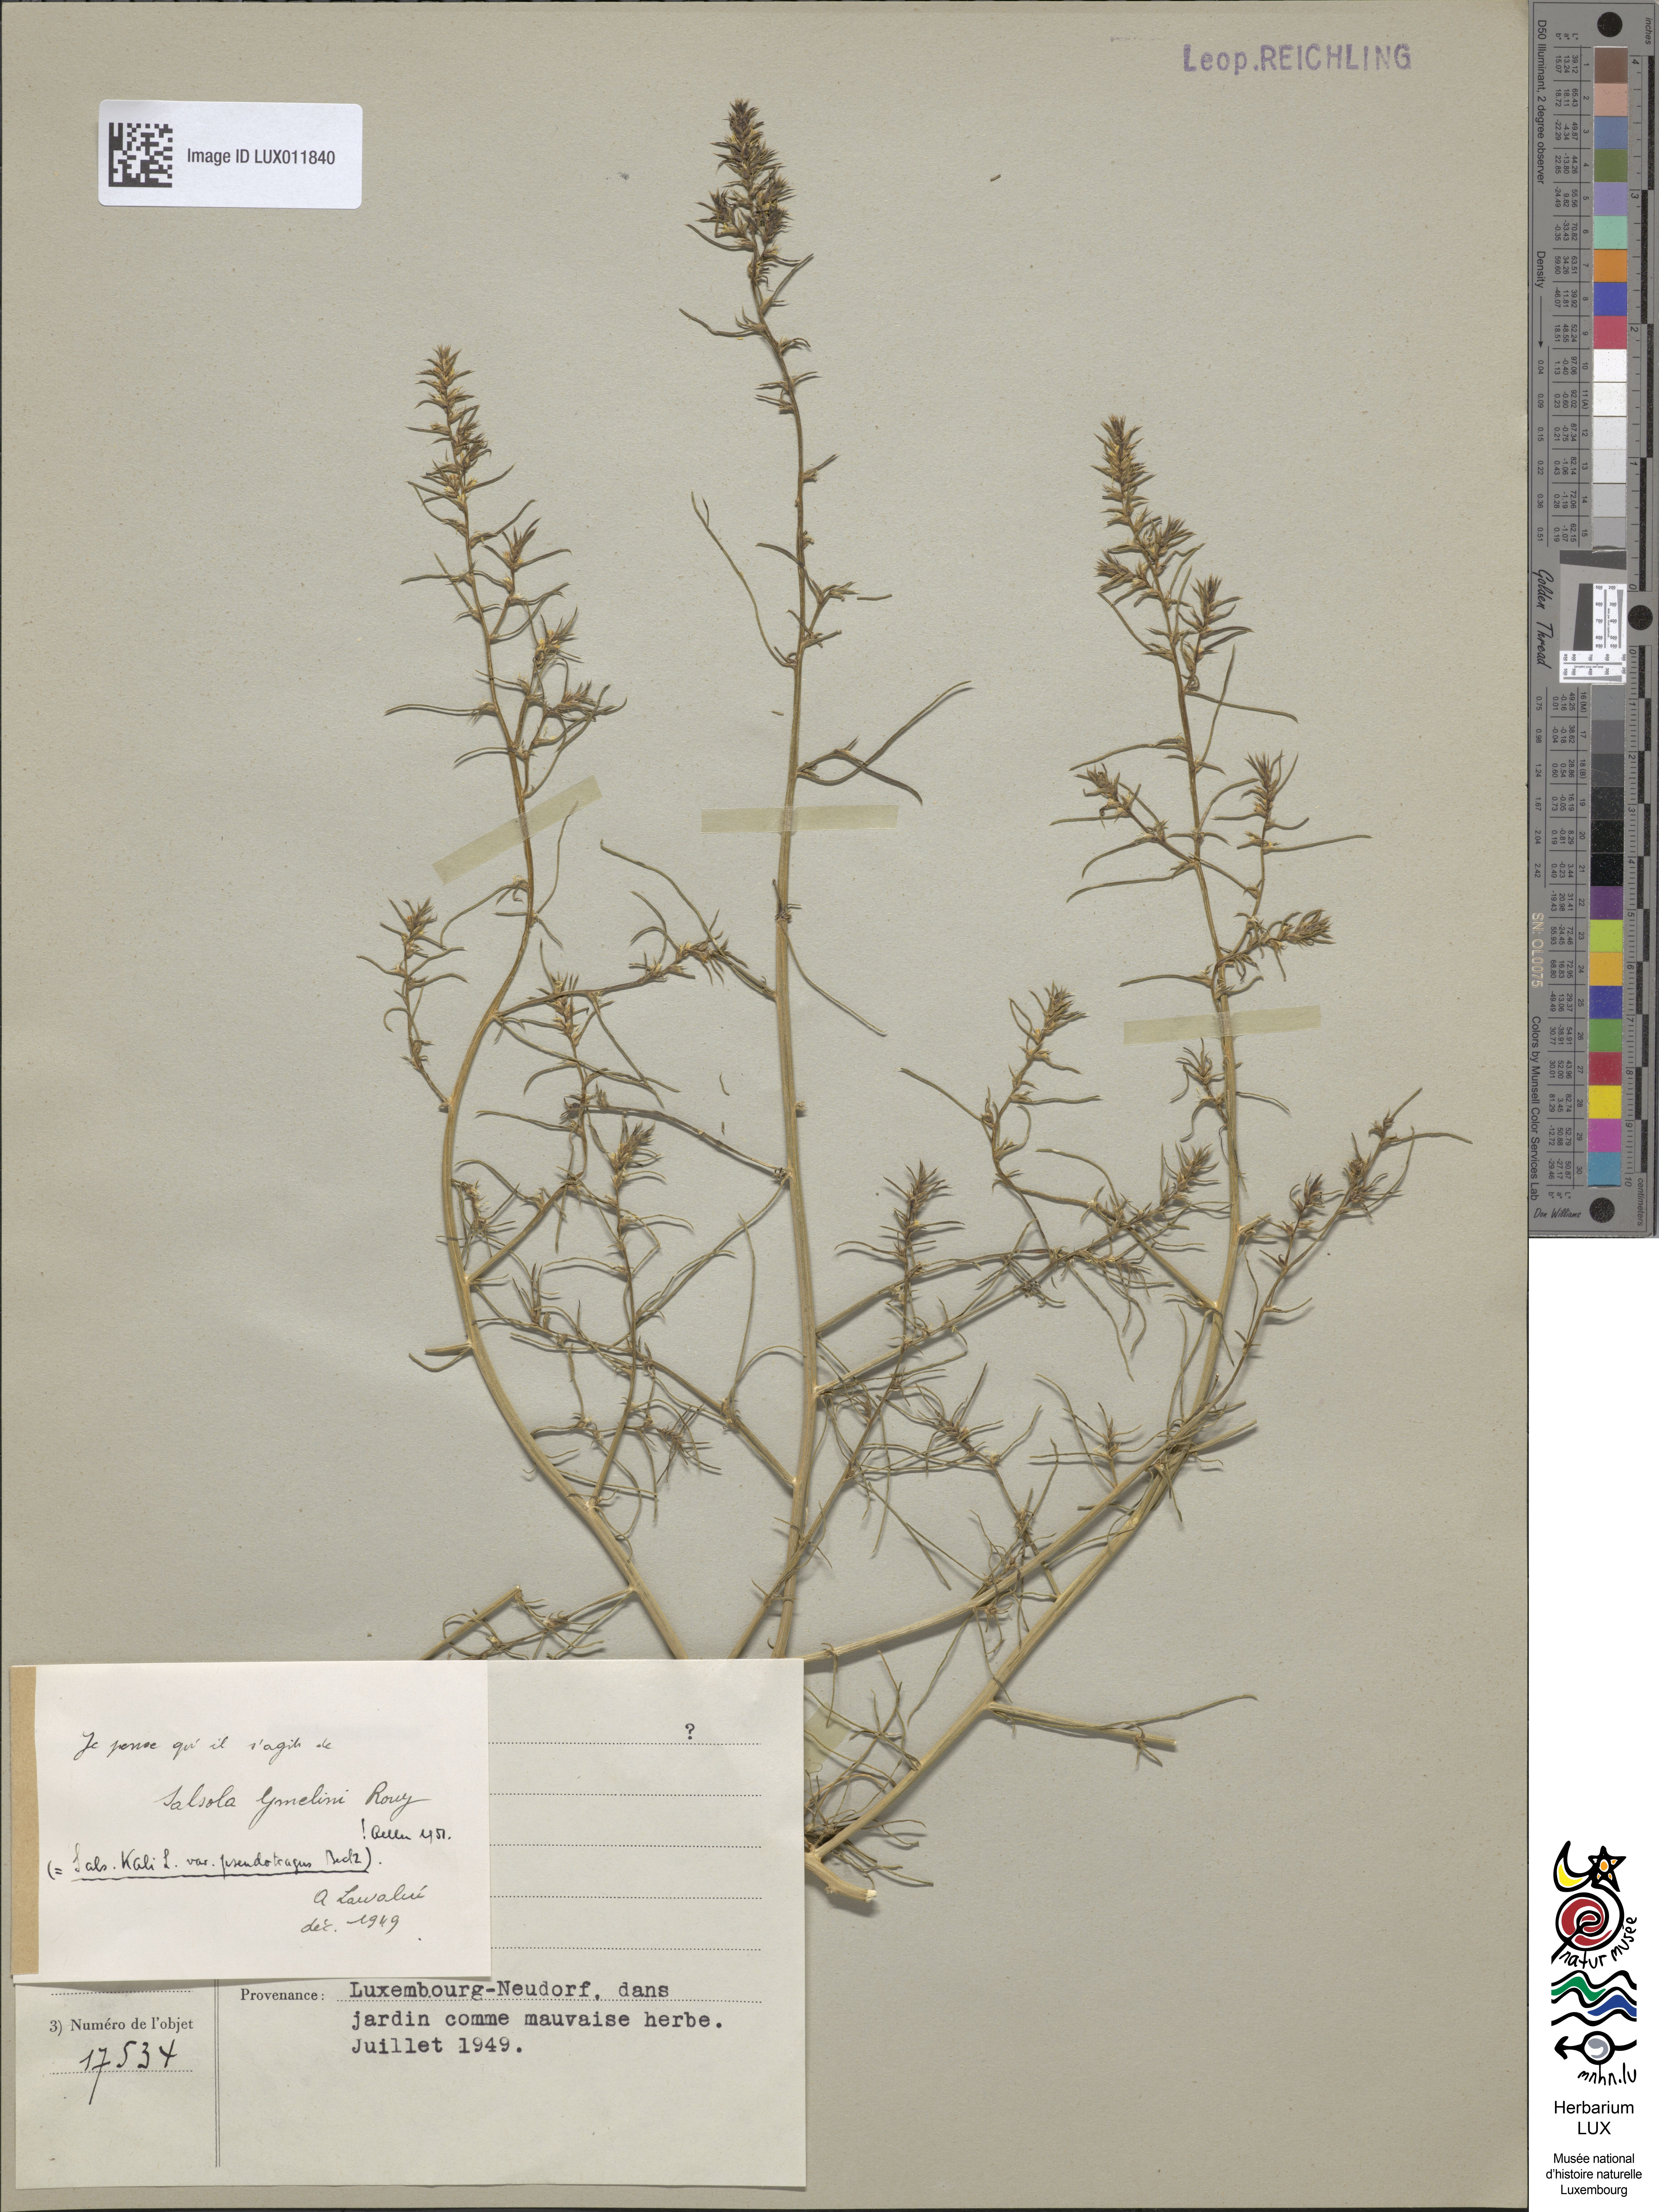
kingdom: Plantae
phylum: Tracheophyta
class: Magnoliopsida
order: Caryophyllales
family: Amaranthaceae
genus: Salsola
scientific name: Salsola tragus
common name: Prickly russian thistle
